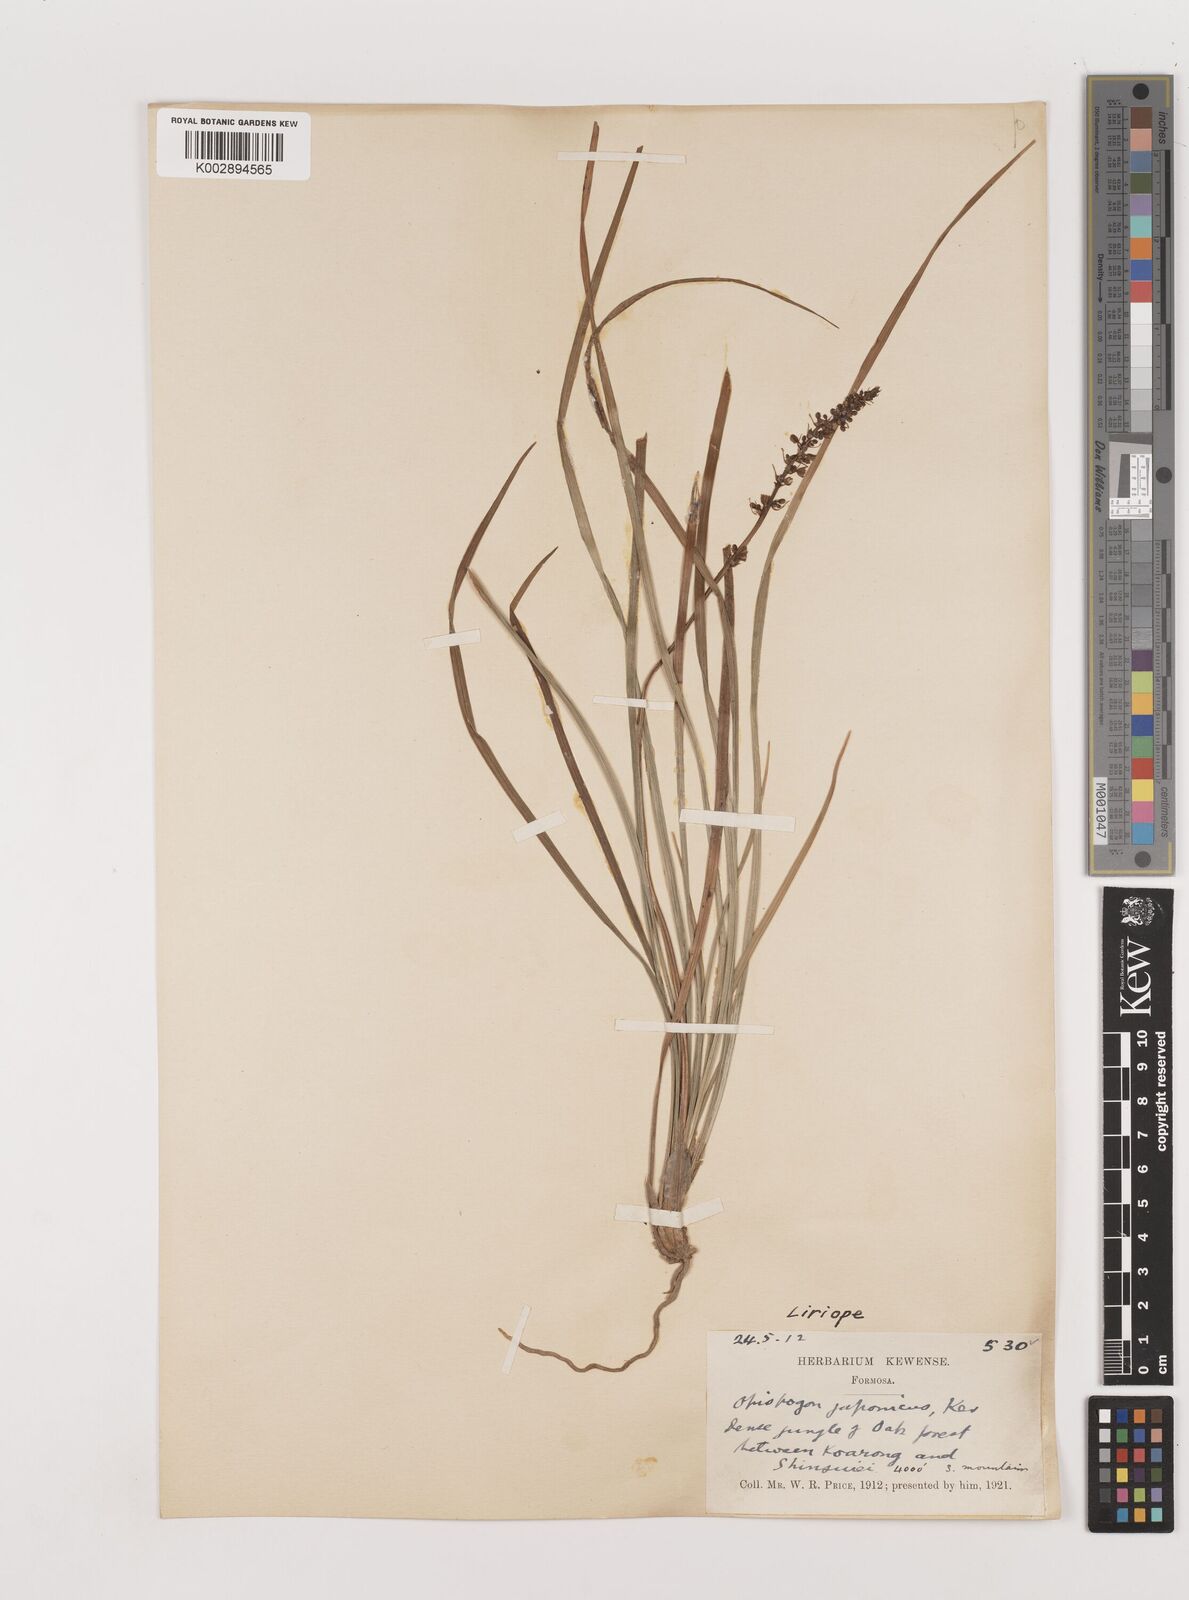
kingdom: Plantae
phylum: Tracheophyta
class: Liliopsida
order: Asparagales
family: Asparagaceae
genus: Liriope
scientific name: Liriope spicata
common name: Creeping liriope
